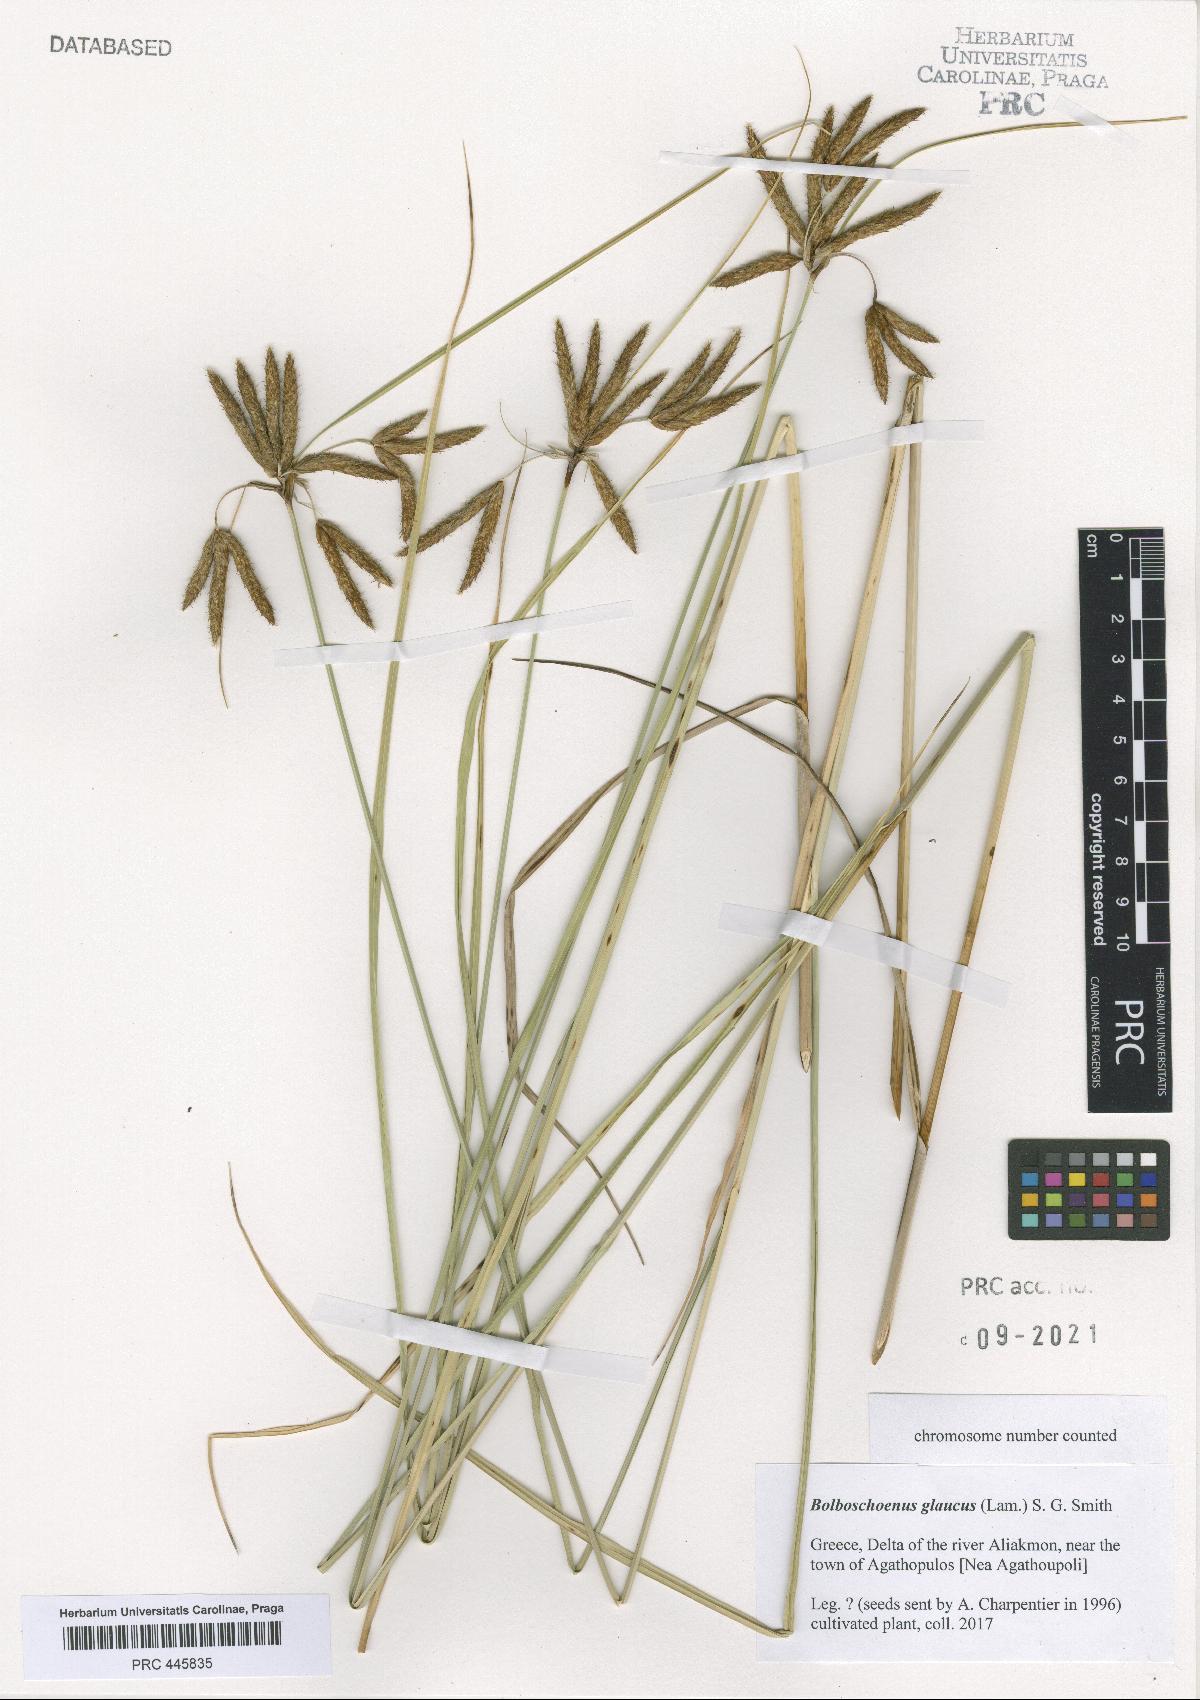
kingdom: Plantae
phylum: Tracheophyta
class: Liliopsida
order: Poales
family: Cyperaceae
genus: Bolboschoenus
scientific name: Bolboschoenus glaucus
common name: Tuberous bulrush
